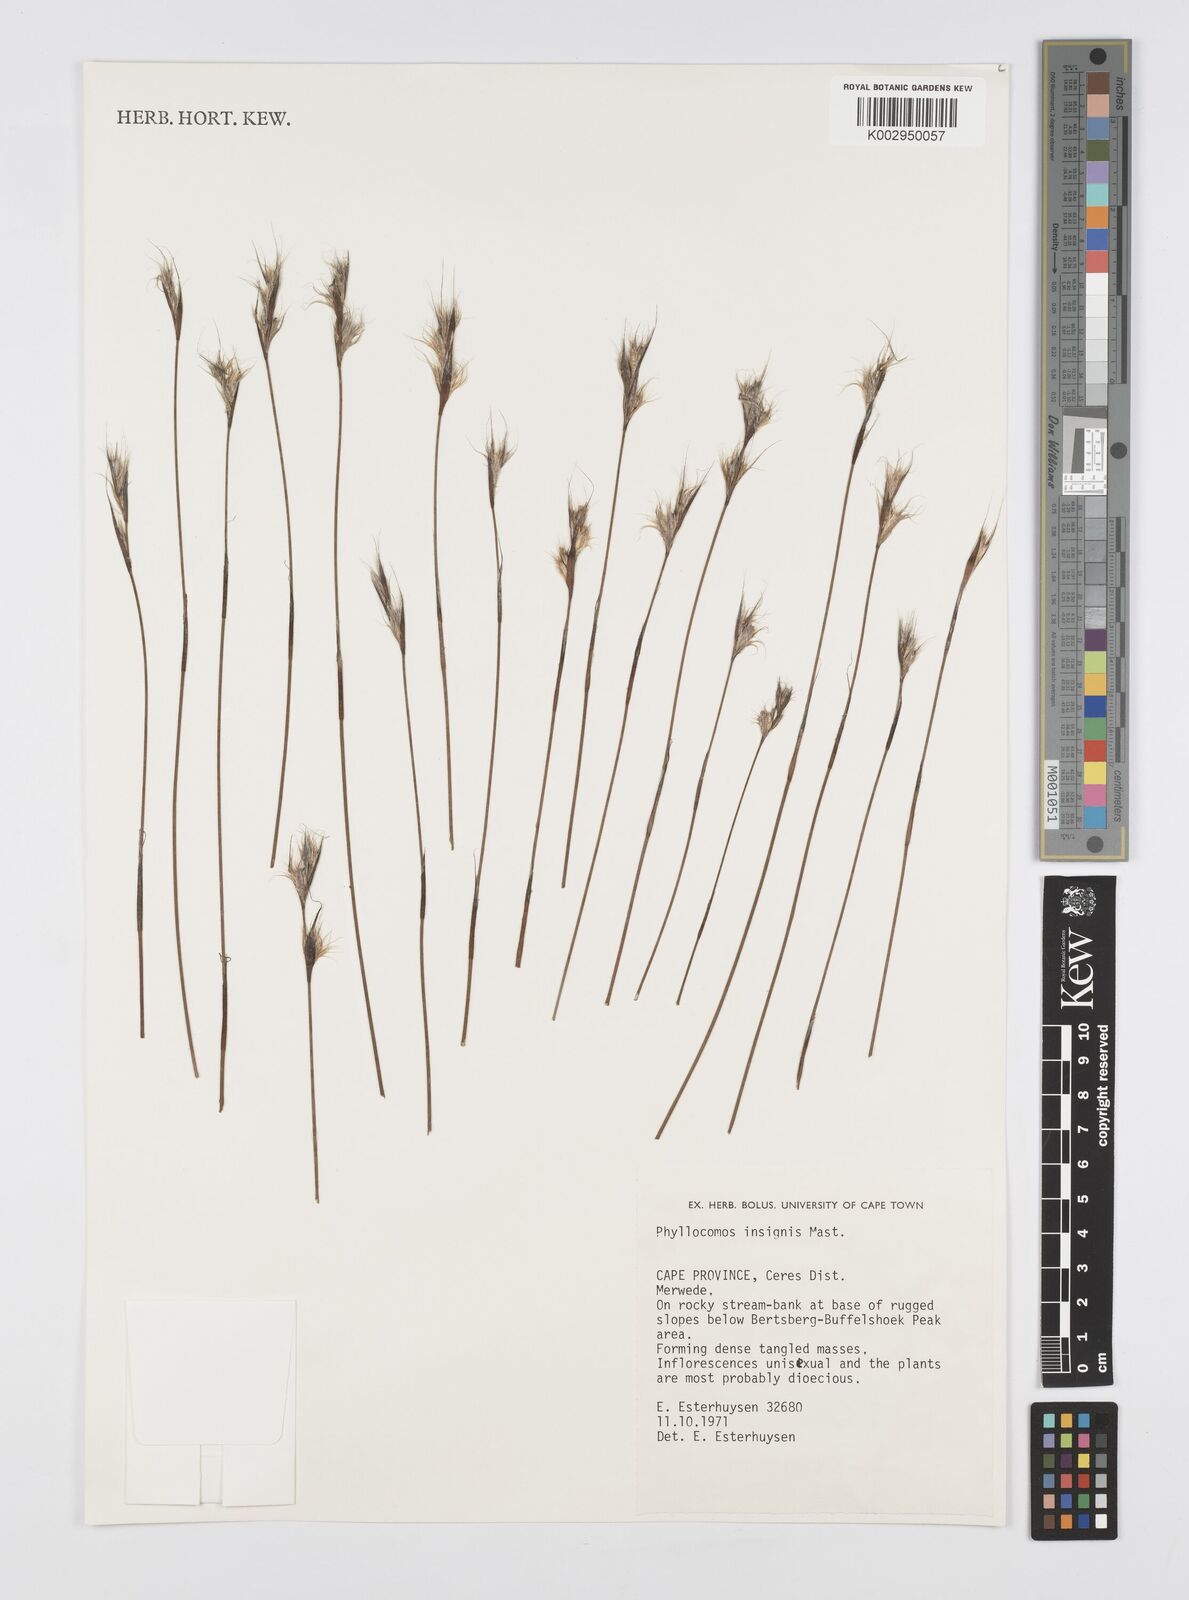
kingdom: Plantae
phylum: Tracheophyta
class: Liliopsida
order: Poales
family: Restionaceae
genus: Anthochortus
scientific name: Anthochortus insignis
